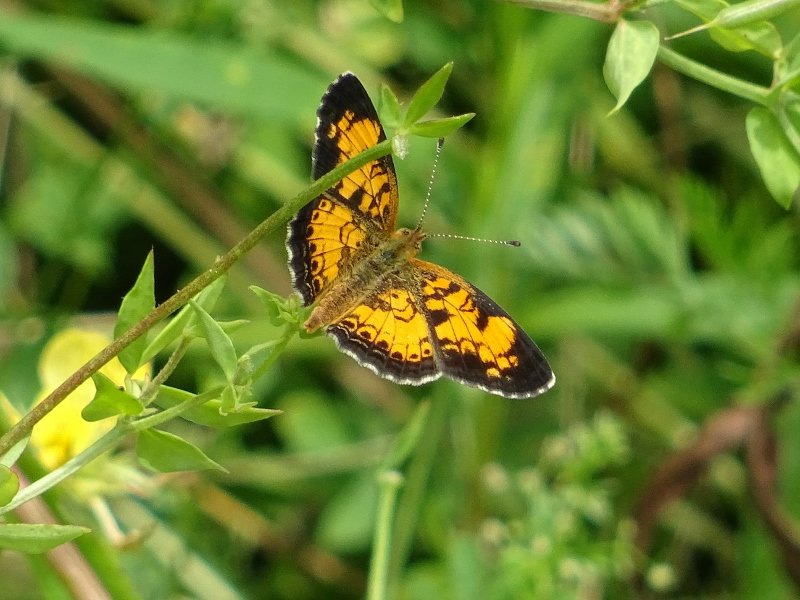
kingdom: Animalia
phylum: Arthropoda
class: Insecta
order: Lepidoptera
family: Nymphalidae
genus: Phyciodes
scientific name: Phyciodes tharos
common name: Pearl Crescent
